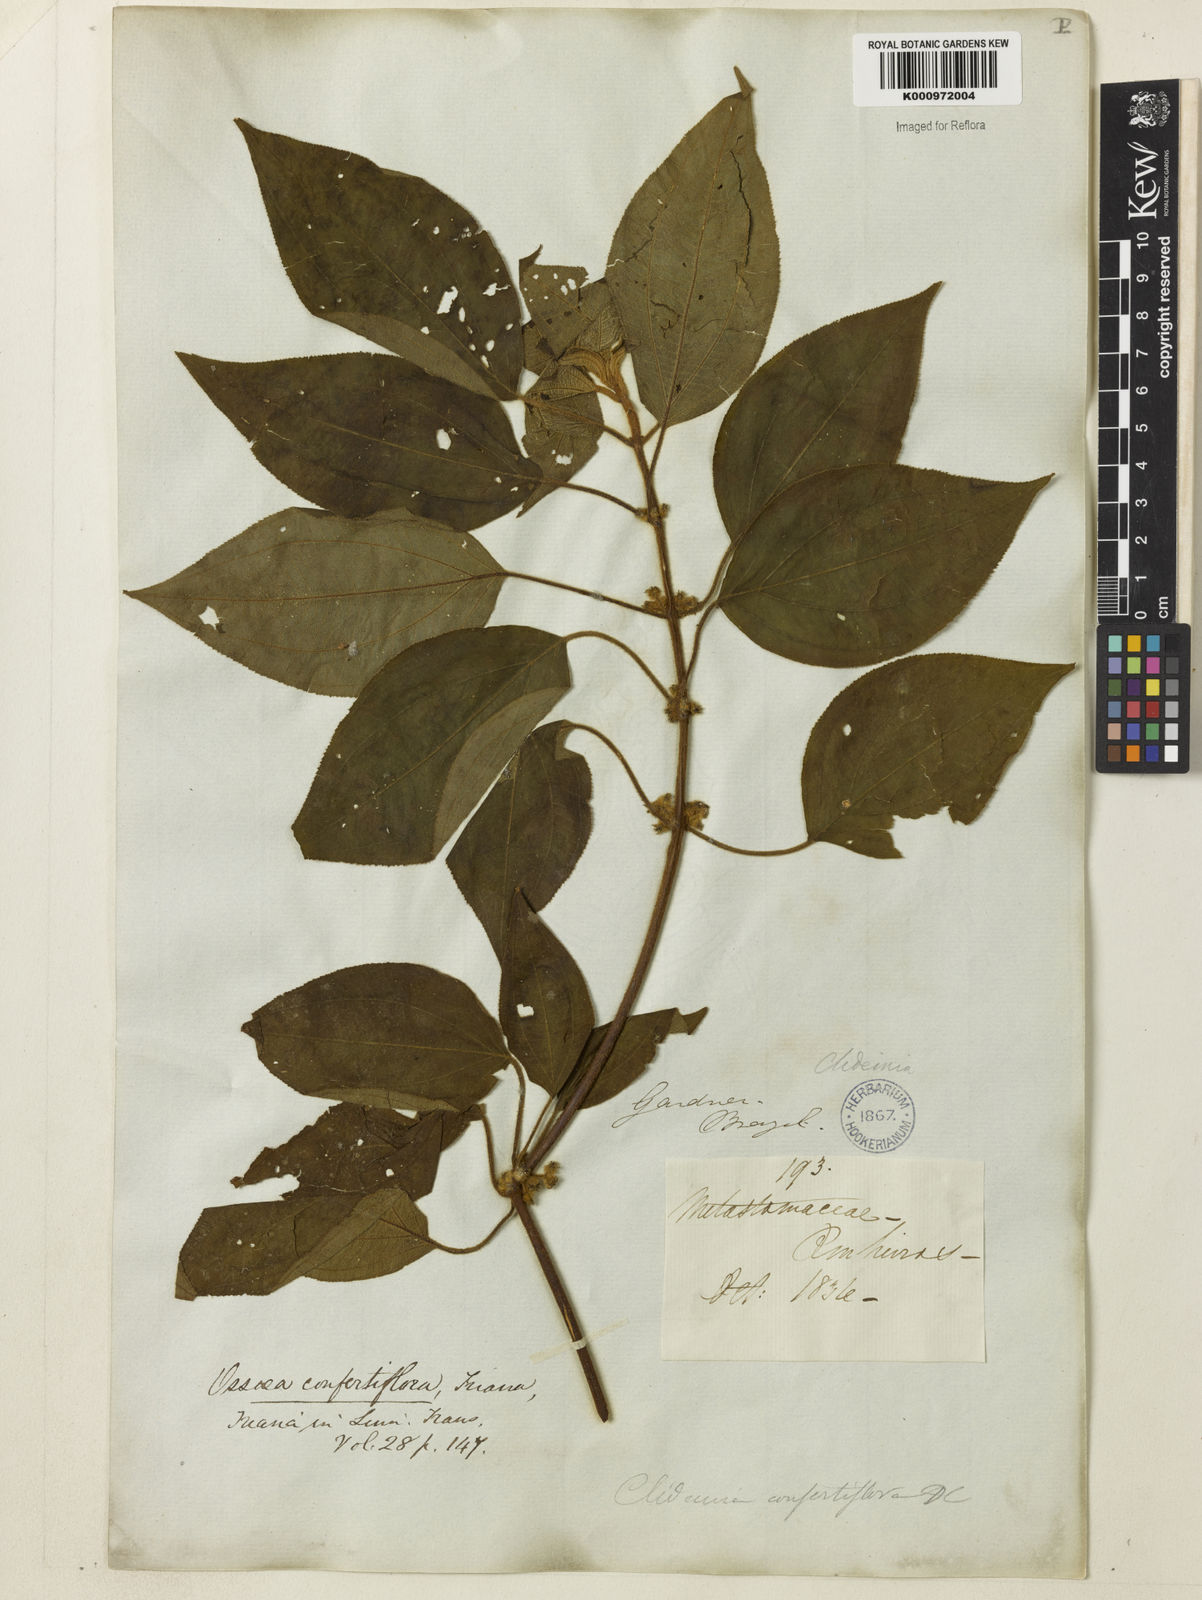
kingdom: Plantae
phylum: Tracheophyta
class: Magnoliopsida
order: Myrtales
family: Melastomataceae
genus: Miconia
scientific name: Miconia rubella
